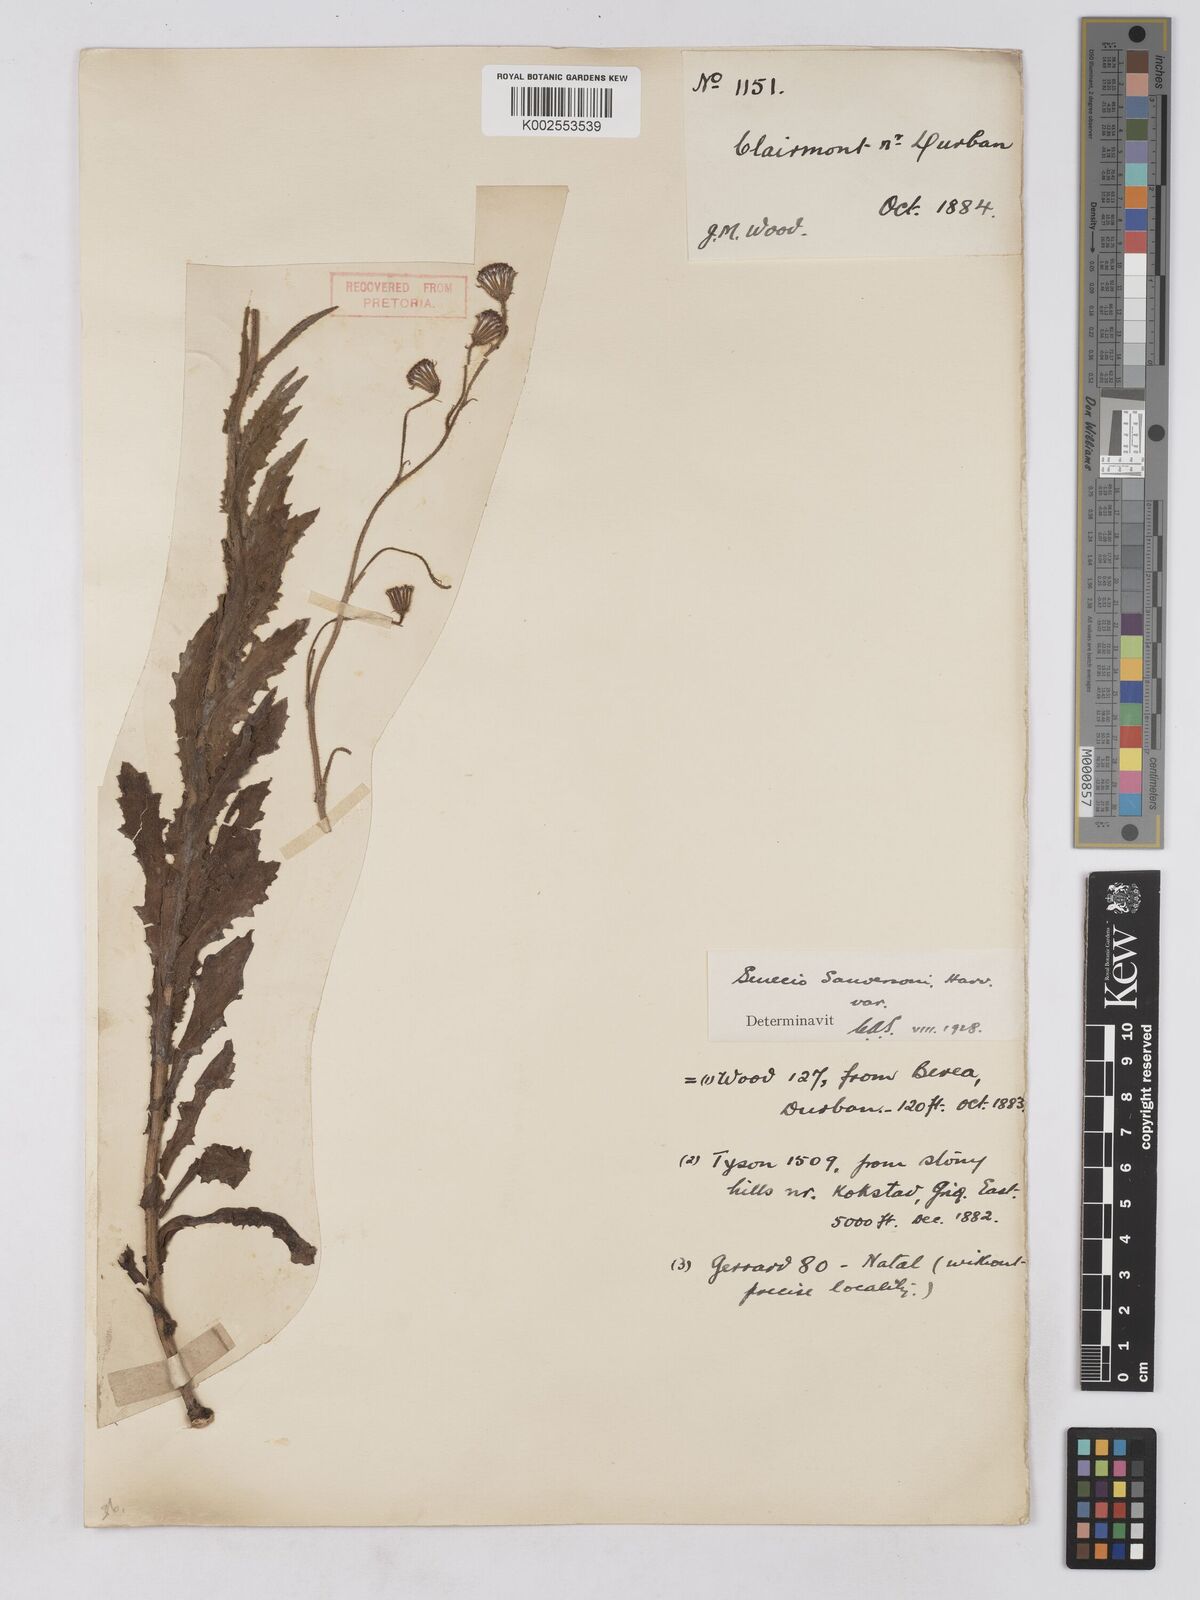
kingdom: Plantae
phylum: Tracheophyta
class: Magnoliopsida
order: Asterales
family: Asteraceae
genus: Senecio
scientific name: Senecio sandersonii
